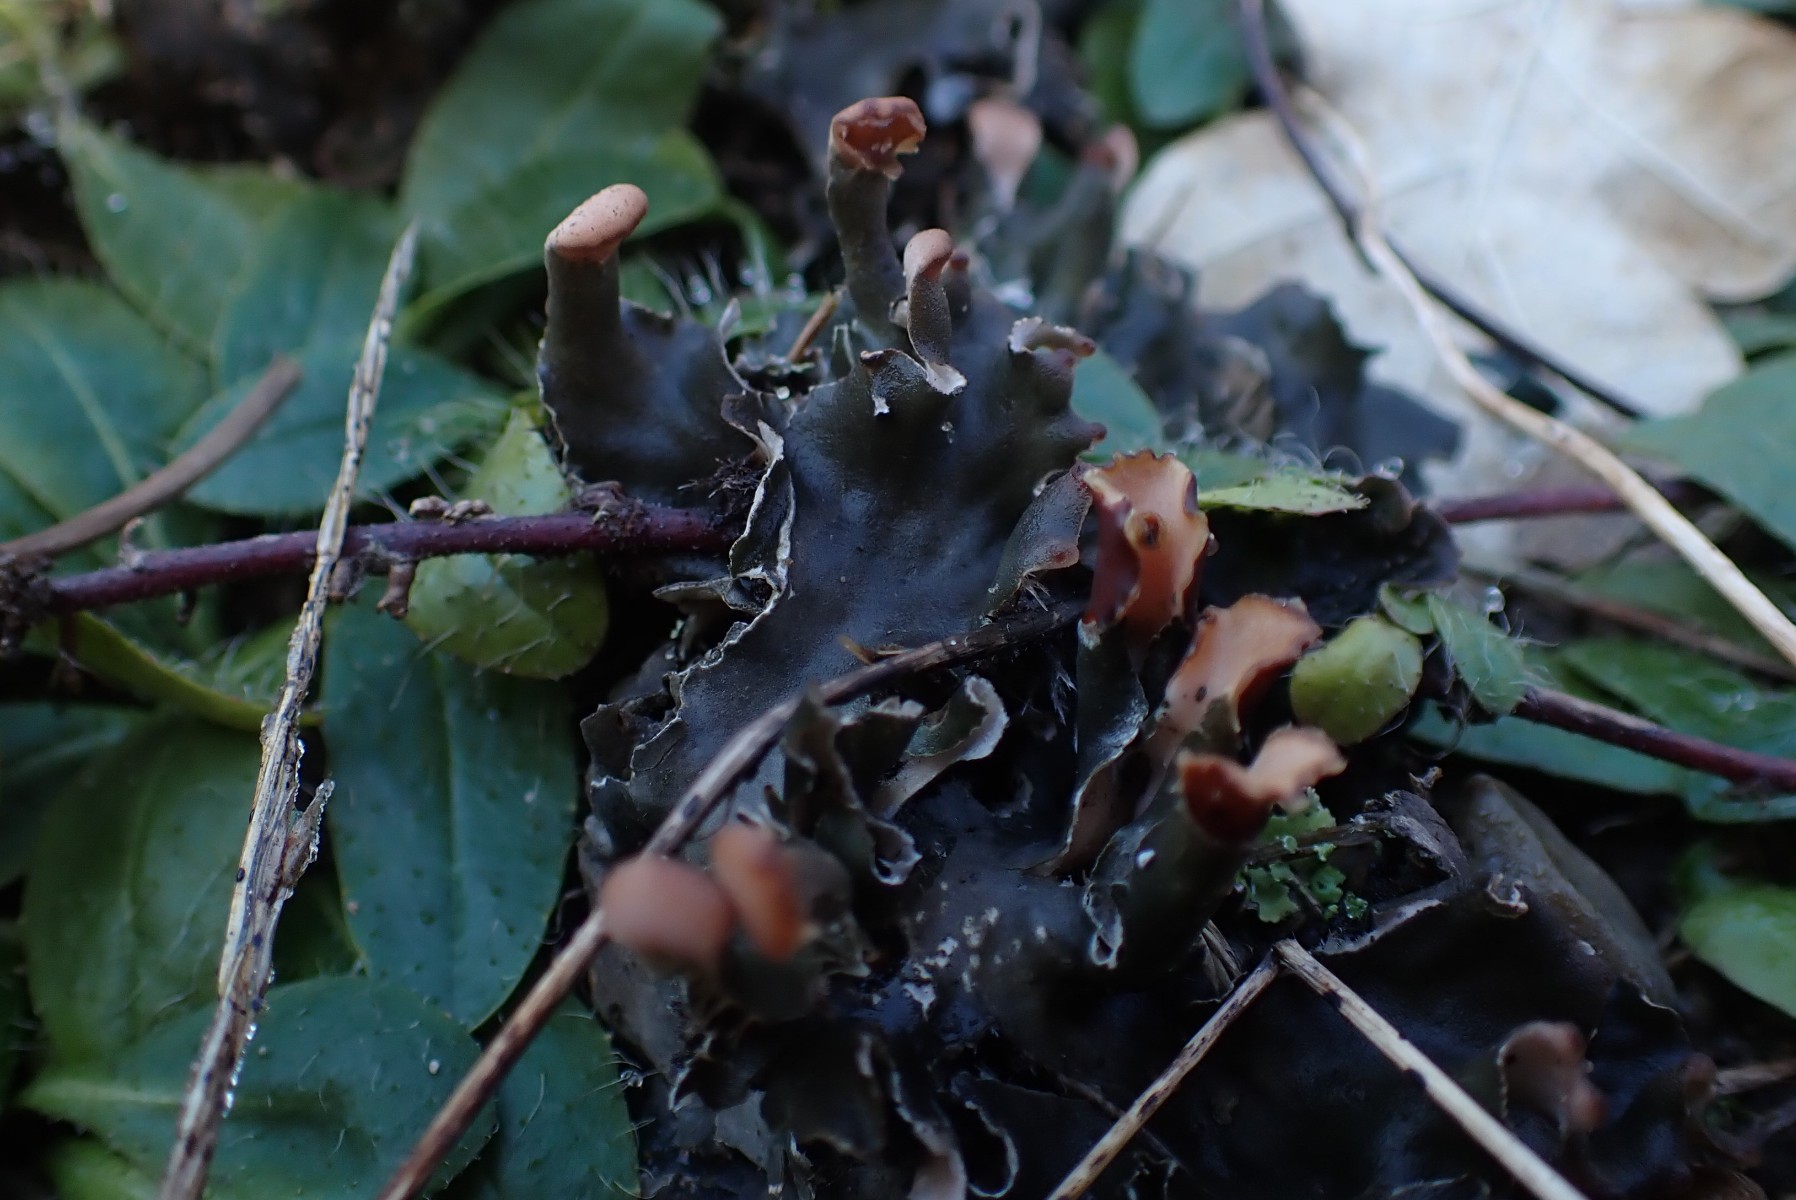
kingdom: Fungi
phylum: Ascomycota
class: Lecanoromycetes
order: Peltigerales
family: Peltigeraceae
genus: Peltigera
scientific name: Peltigera hymenina
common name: hinde-skjoldlav
